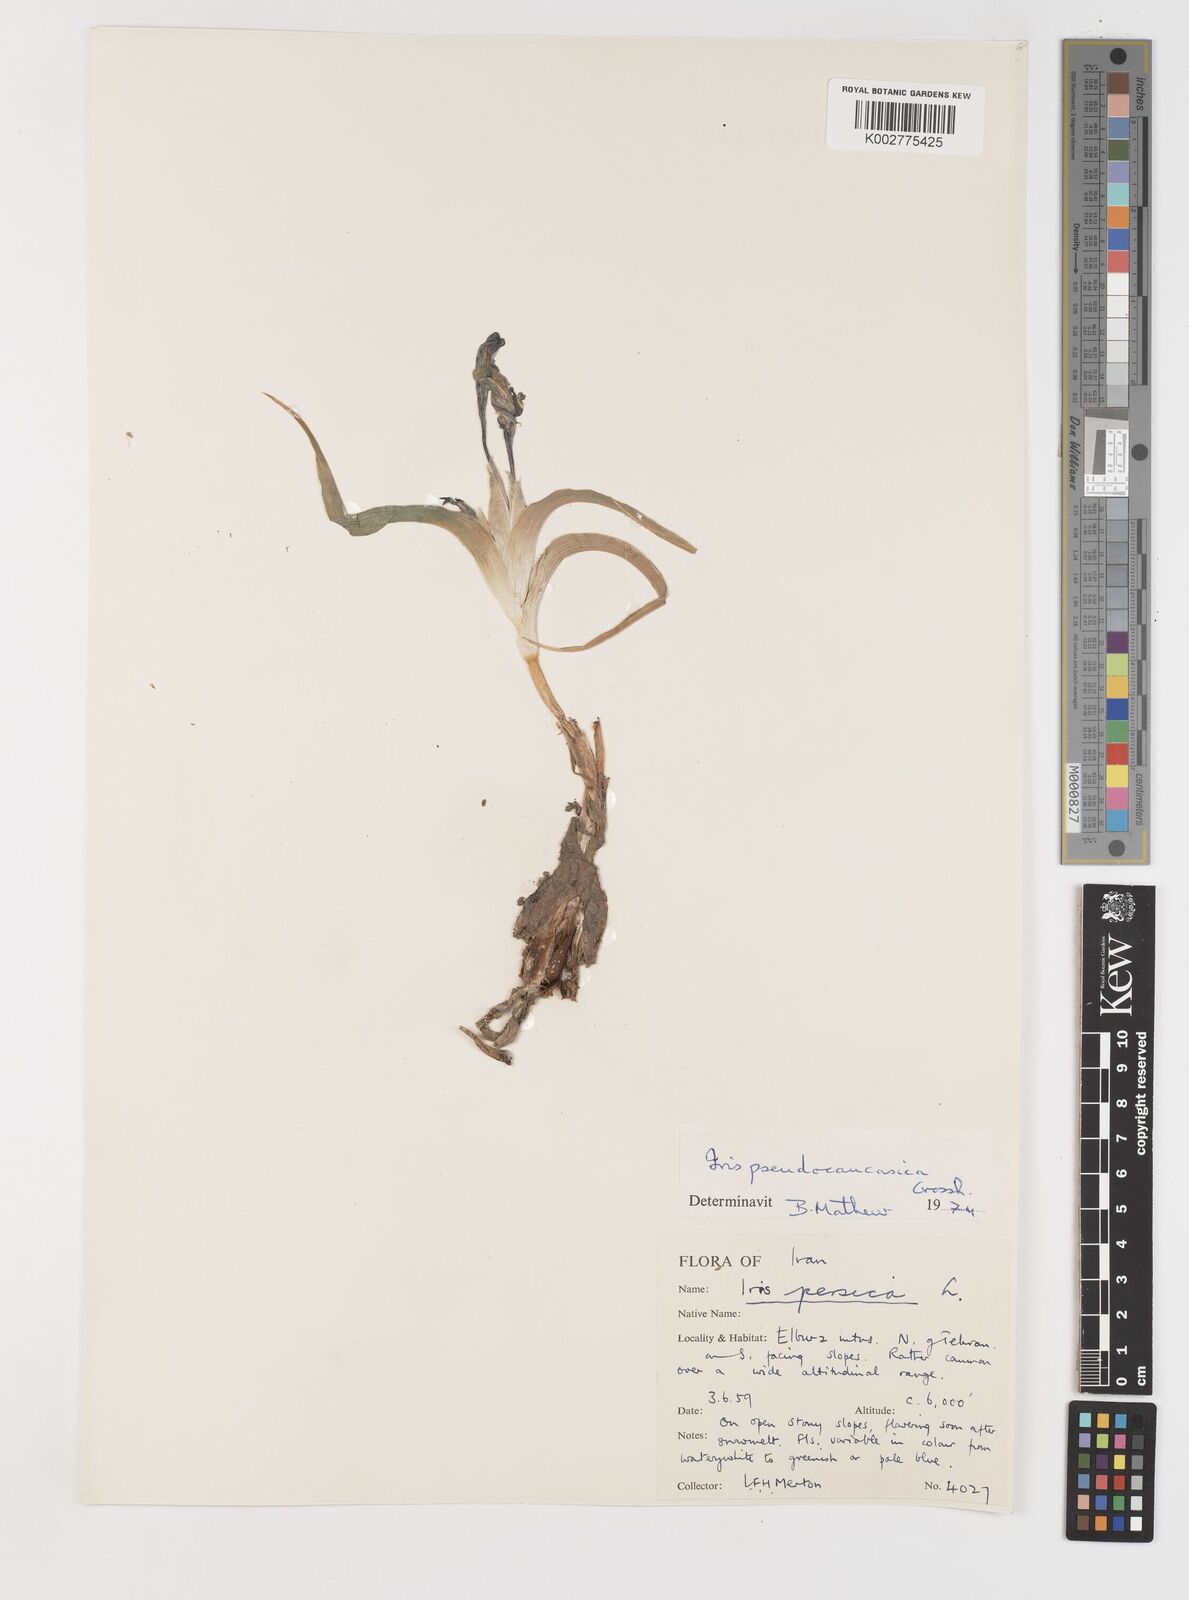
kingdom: Plantae
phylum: Tracheophyta
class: Liliopsida
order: Asparagales
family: Iridaceae
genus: Iris
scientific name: Iris pseudocaucasica
